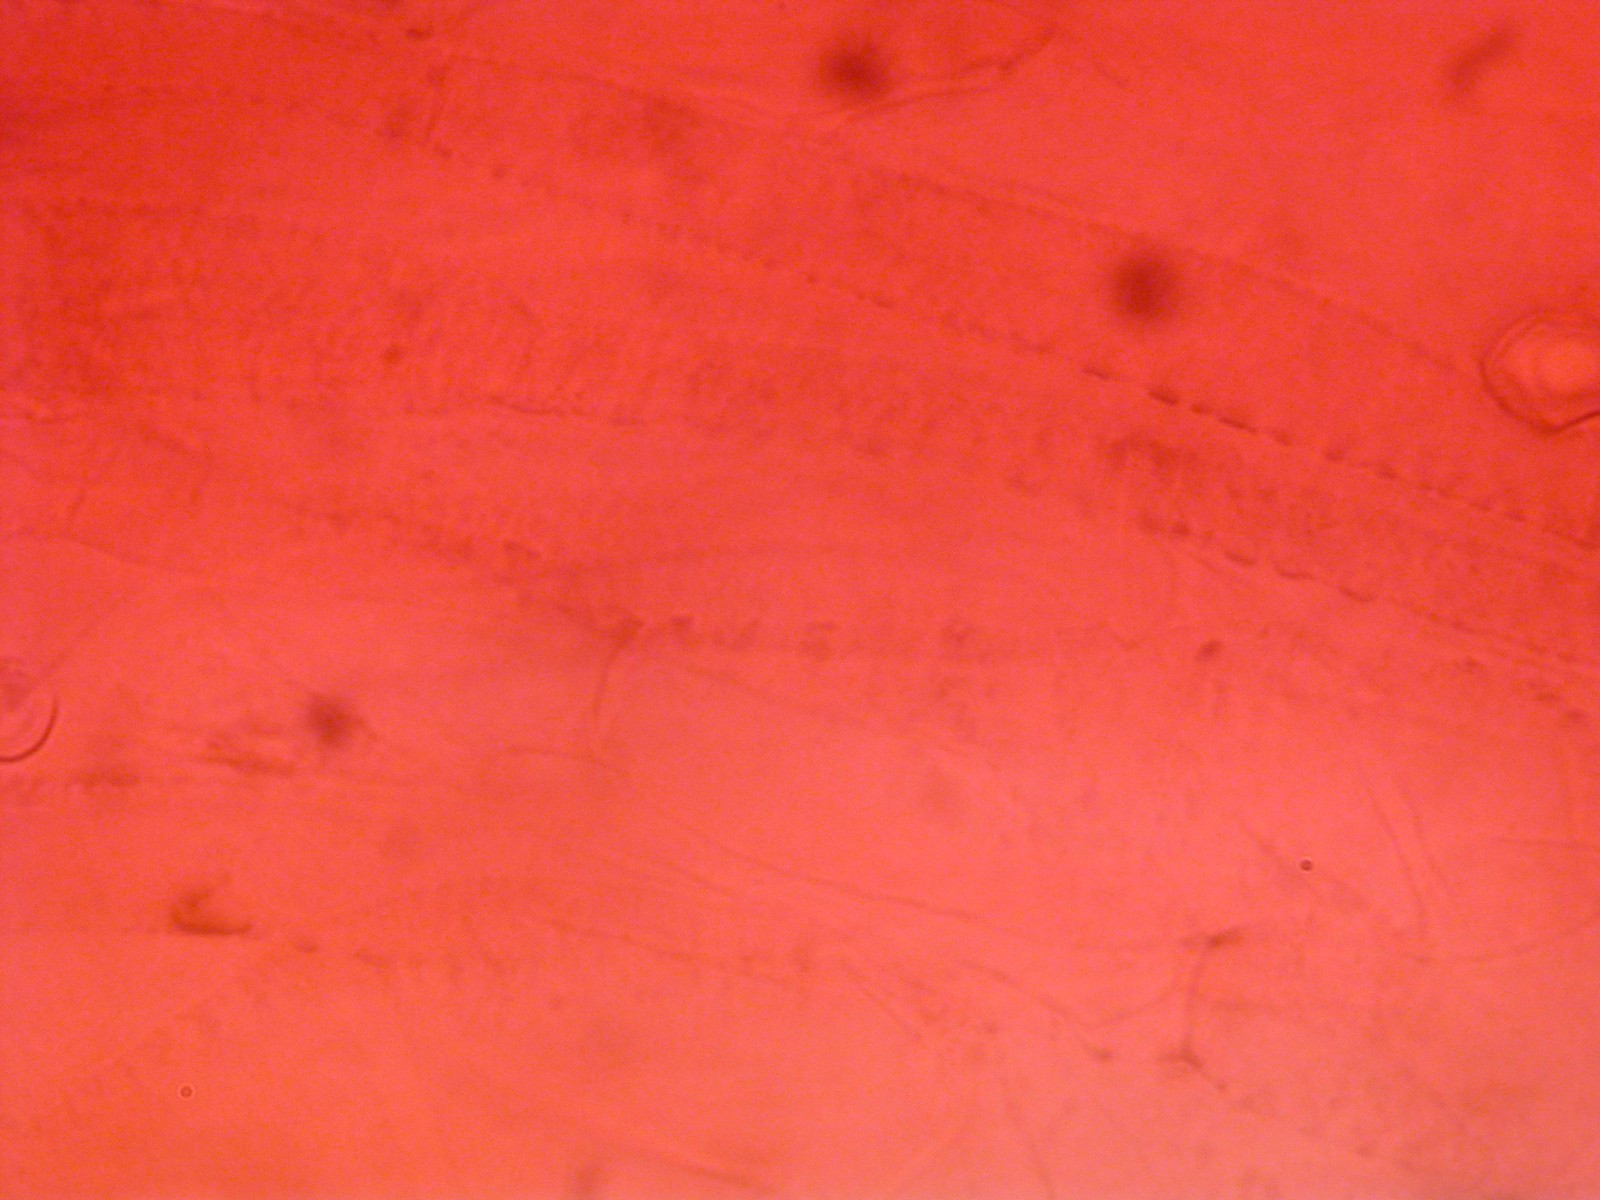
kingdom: Fungi
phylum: Basidiomycota
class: Agaricomycetes
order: Agaricales
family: Entolomataceae
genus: Entoloma
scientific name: Entoloma fernandae
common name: filtet rødblad
